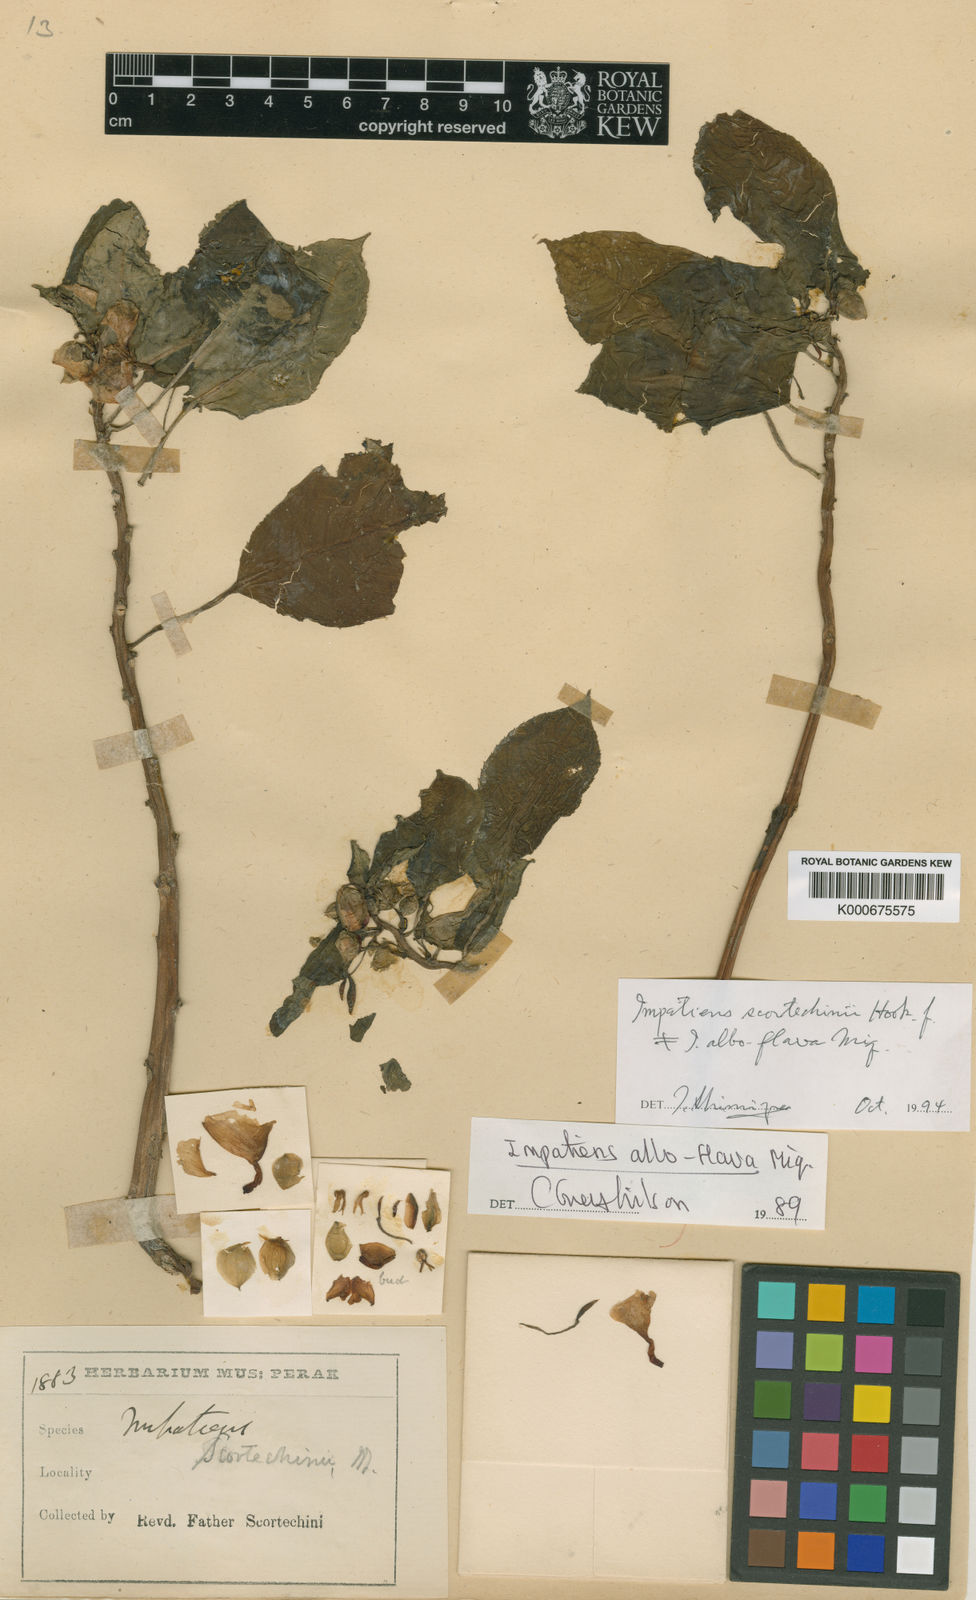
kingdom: Plantae
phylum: Tracheophyta
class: Magnoliopsida
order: Ericales
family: Balsaminaceae
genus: Impatiens
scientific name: Impatiens scortechinii
